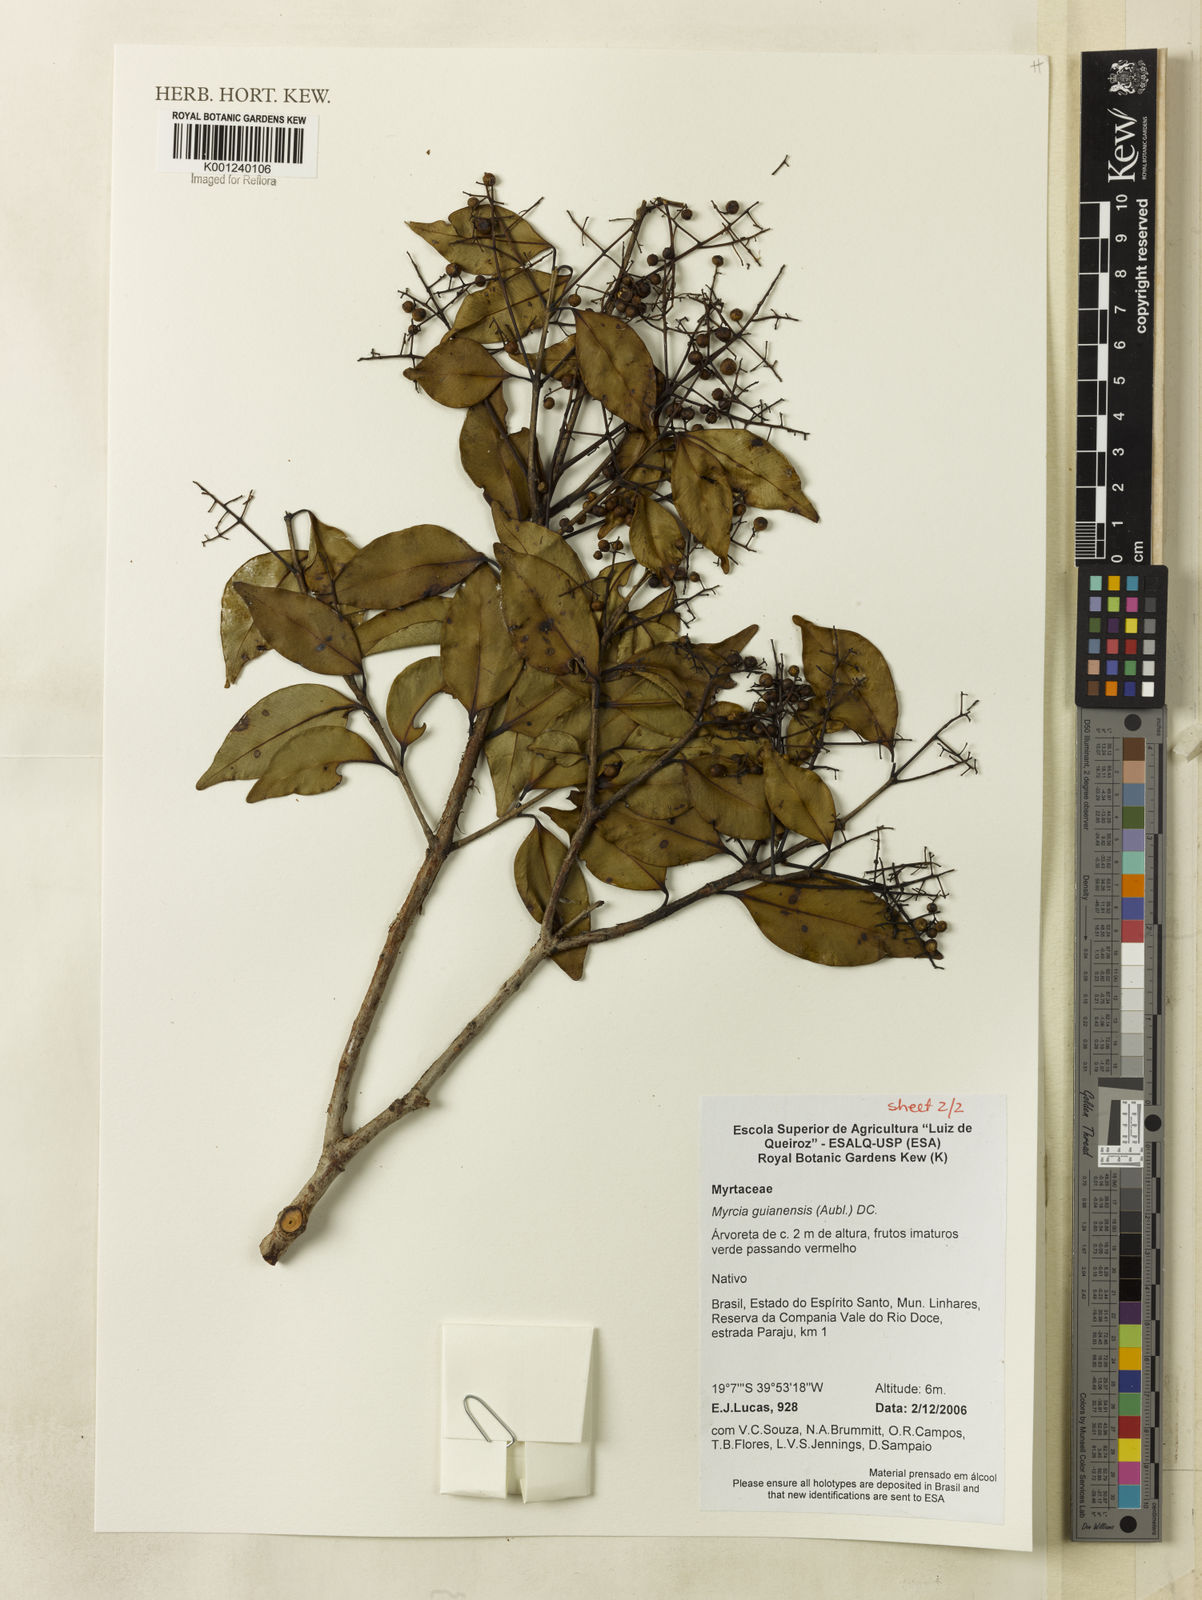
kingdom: Plantae
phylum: Tracheophyta
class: Magnoliopsida
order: Myrtales
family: Myrtaceae
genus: Myrcia
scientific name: Myrcia multiflora
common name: Pedra hume
